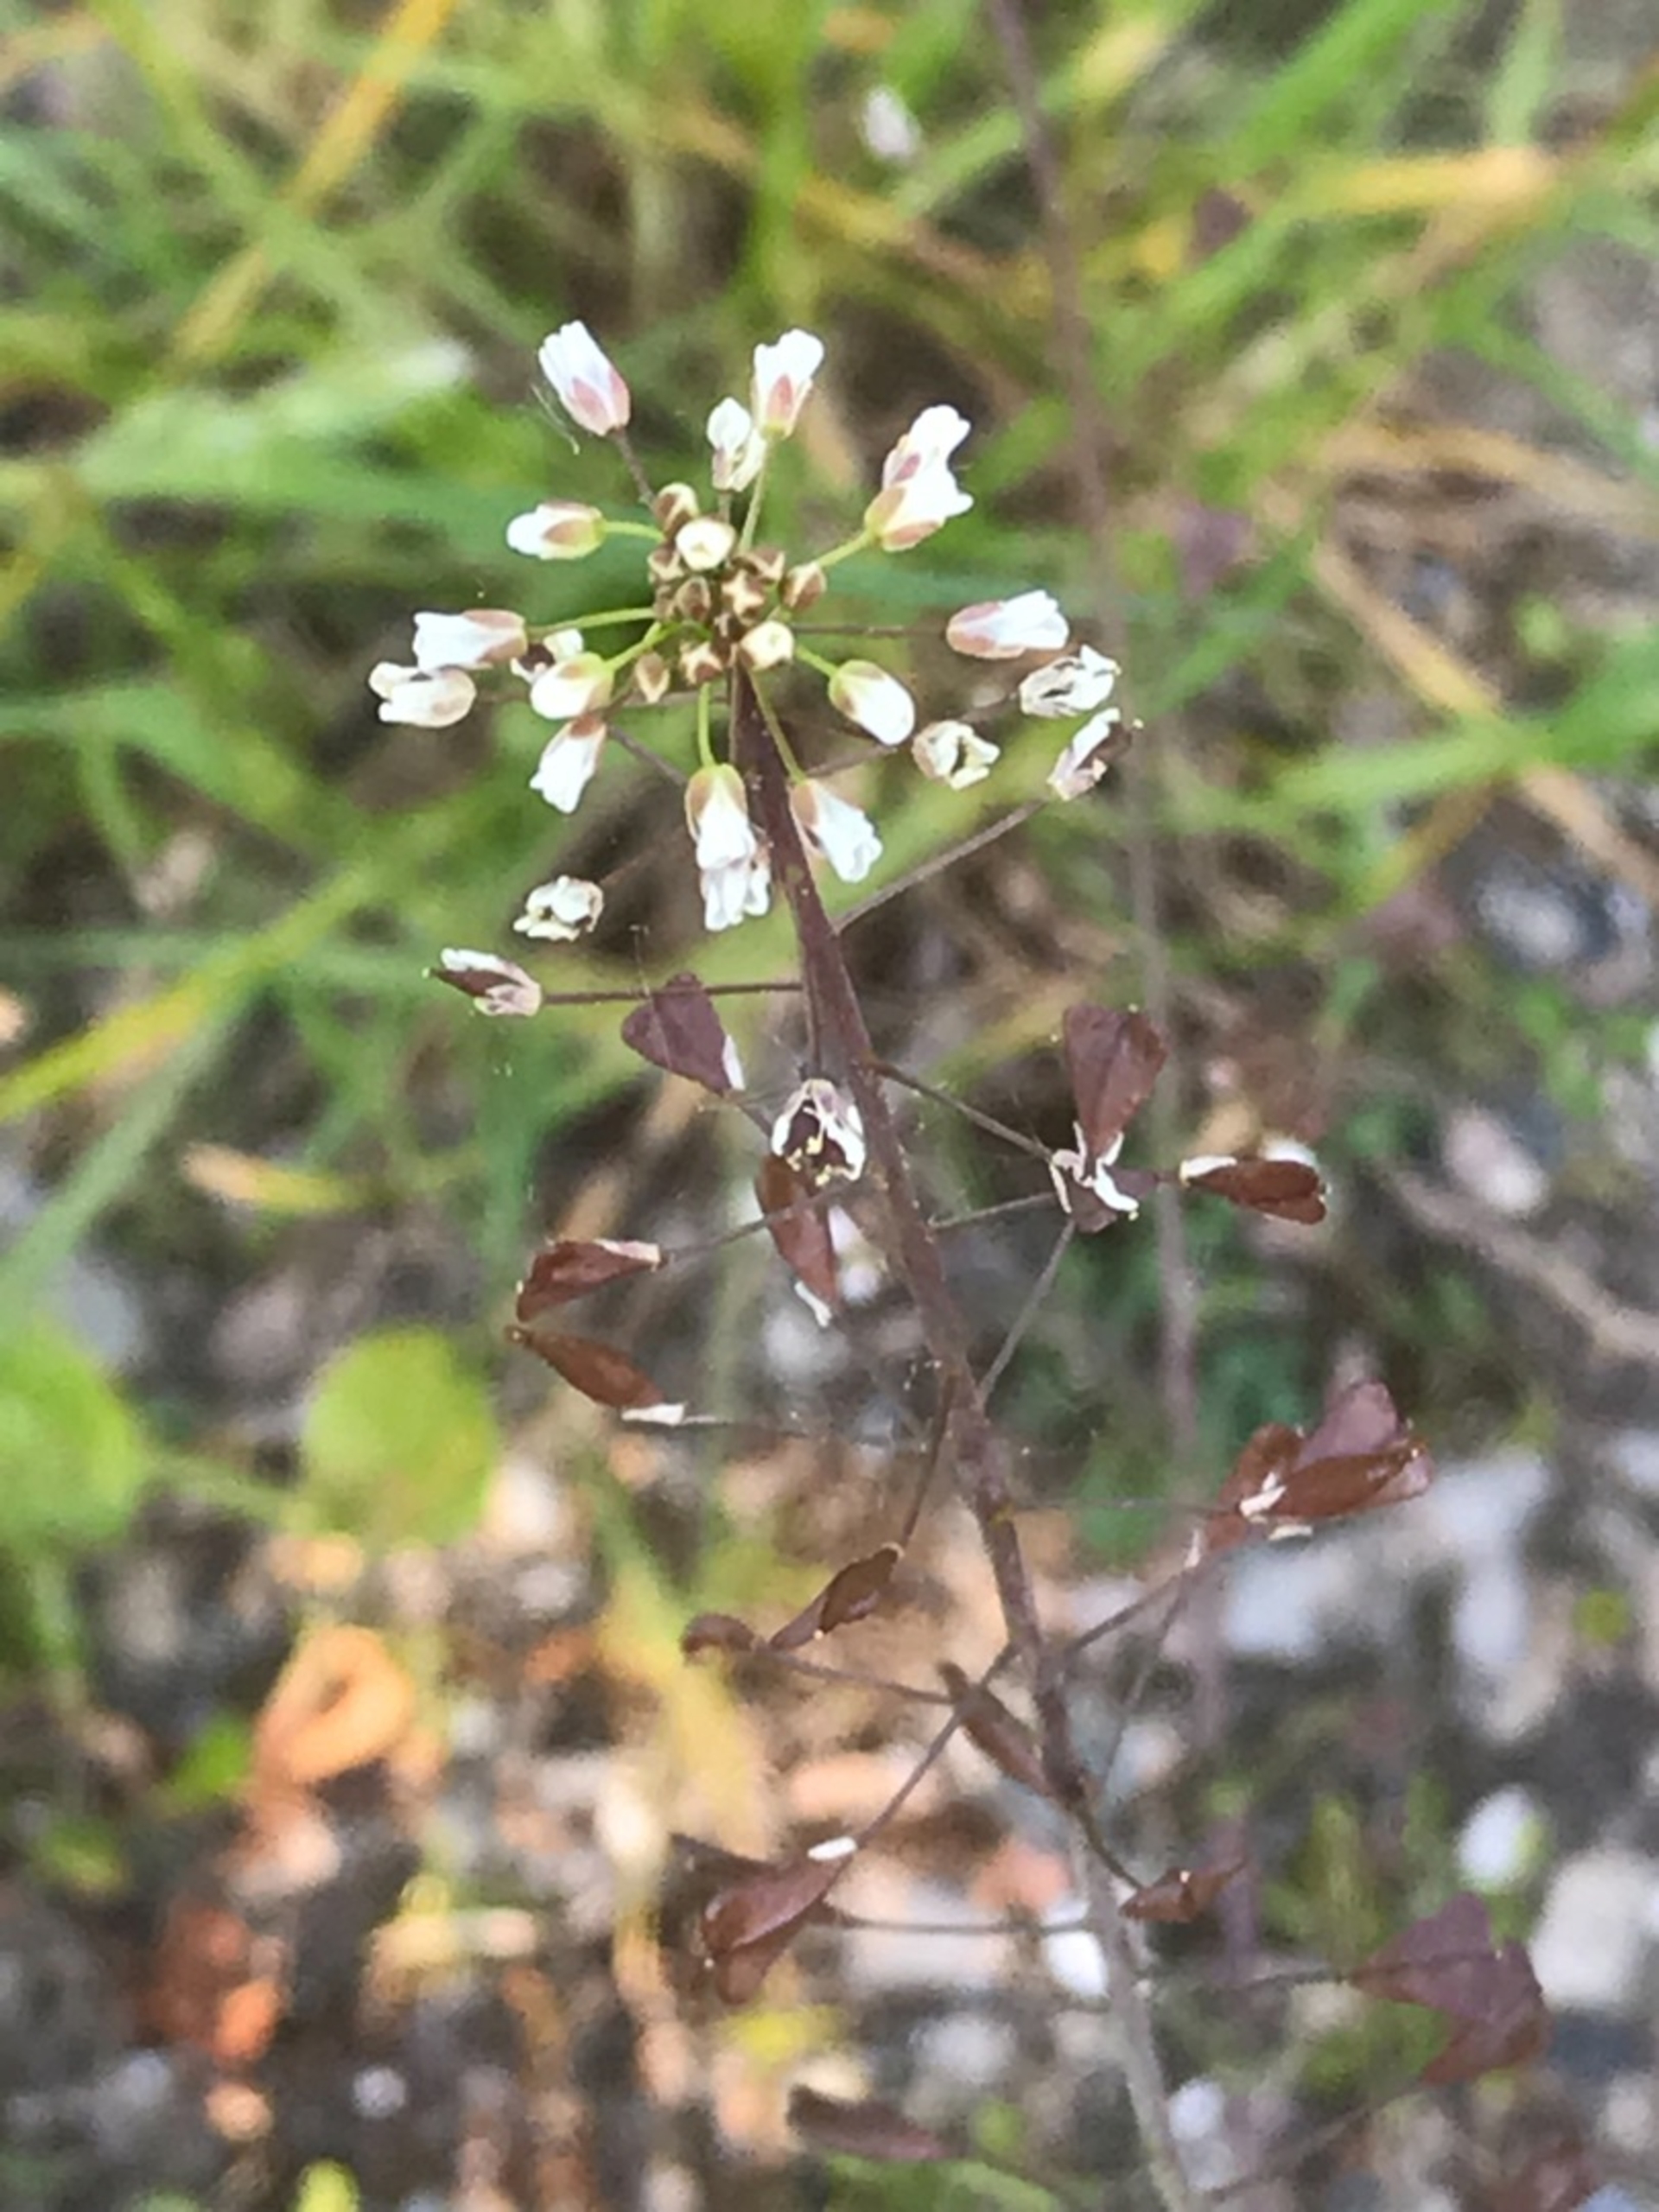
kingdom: Plantae
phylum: Tracheophyta
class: Magnoliopsida
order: Brassicales
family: Brassicaceae
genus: Capsella
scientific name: Capsella bursa-pastoris
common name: Hyrdetaske
